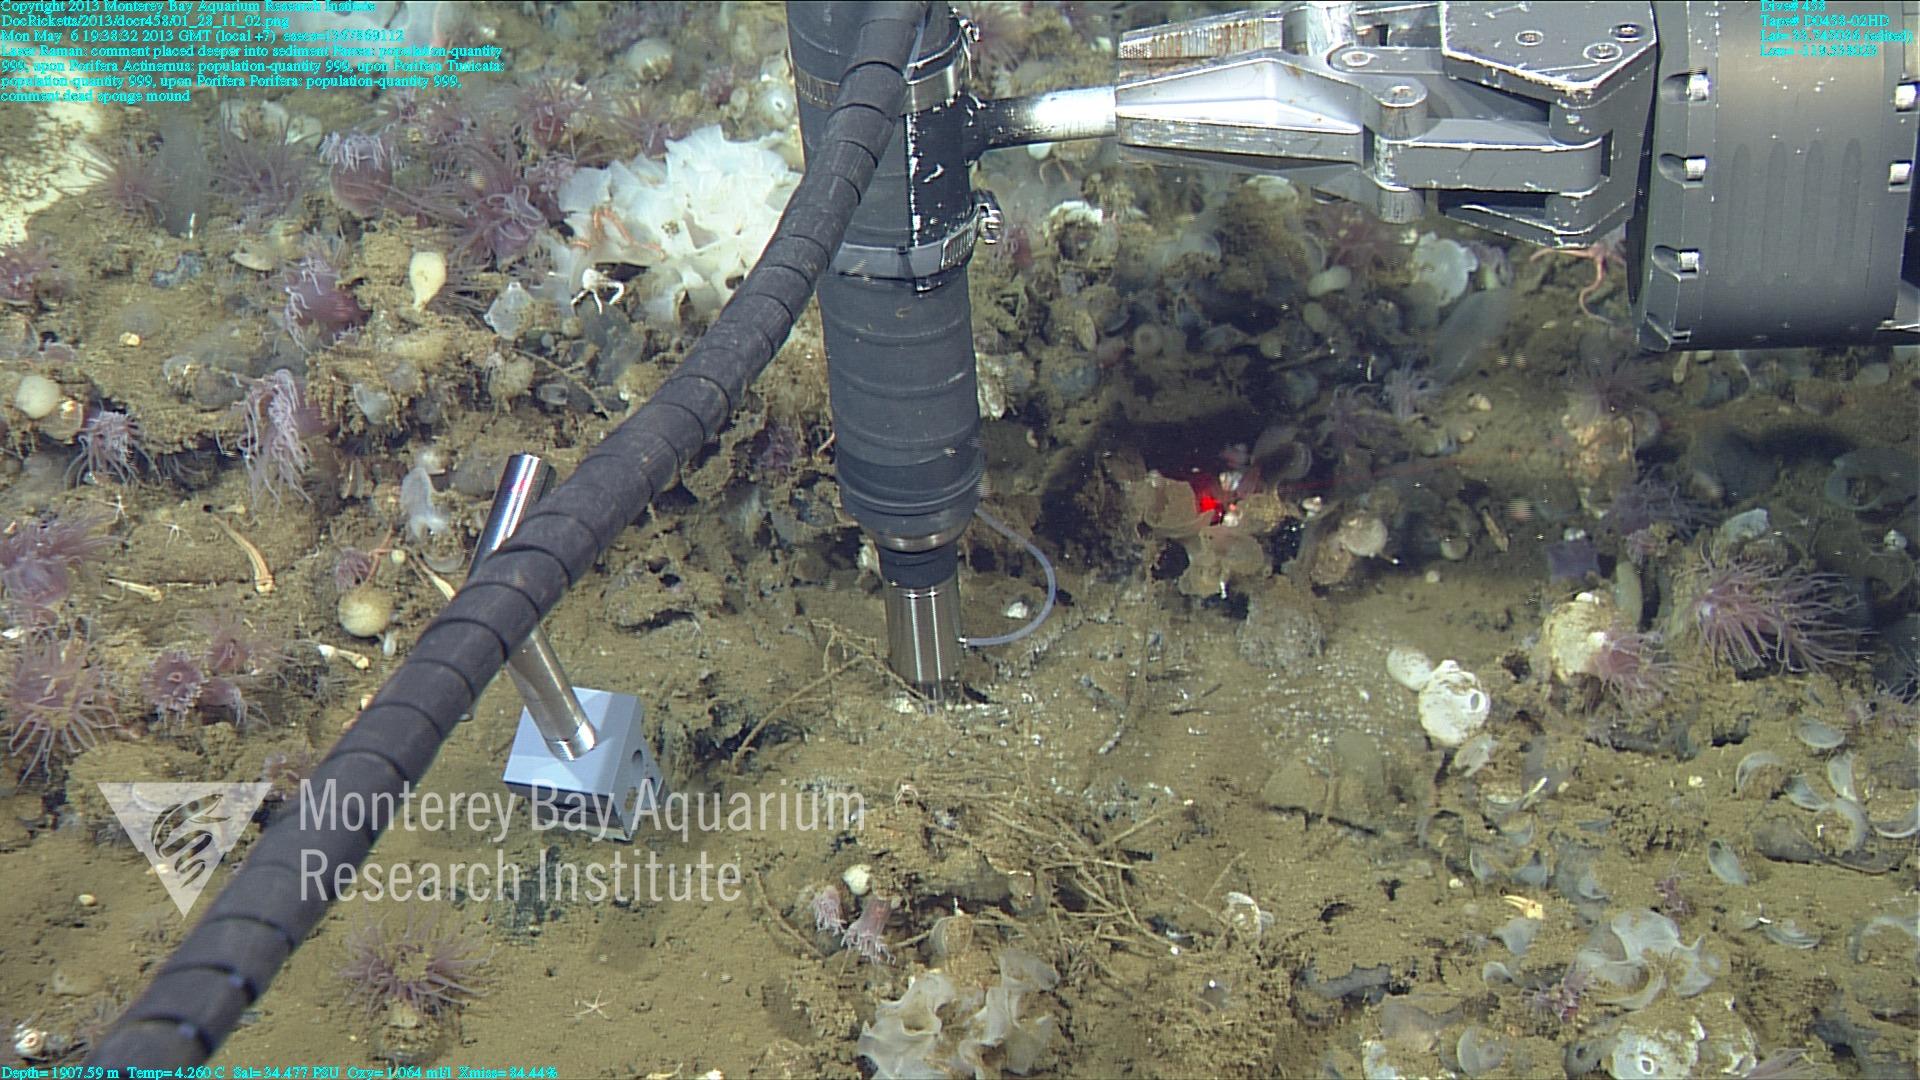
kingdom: Animalia
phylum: Porifera
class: Hexactinellida
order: Sceptrulophora
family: Farreidae
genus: Farrea
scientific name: Farrea
